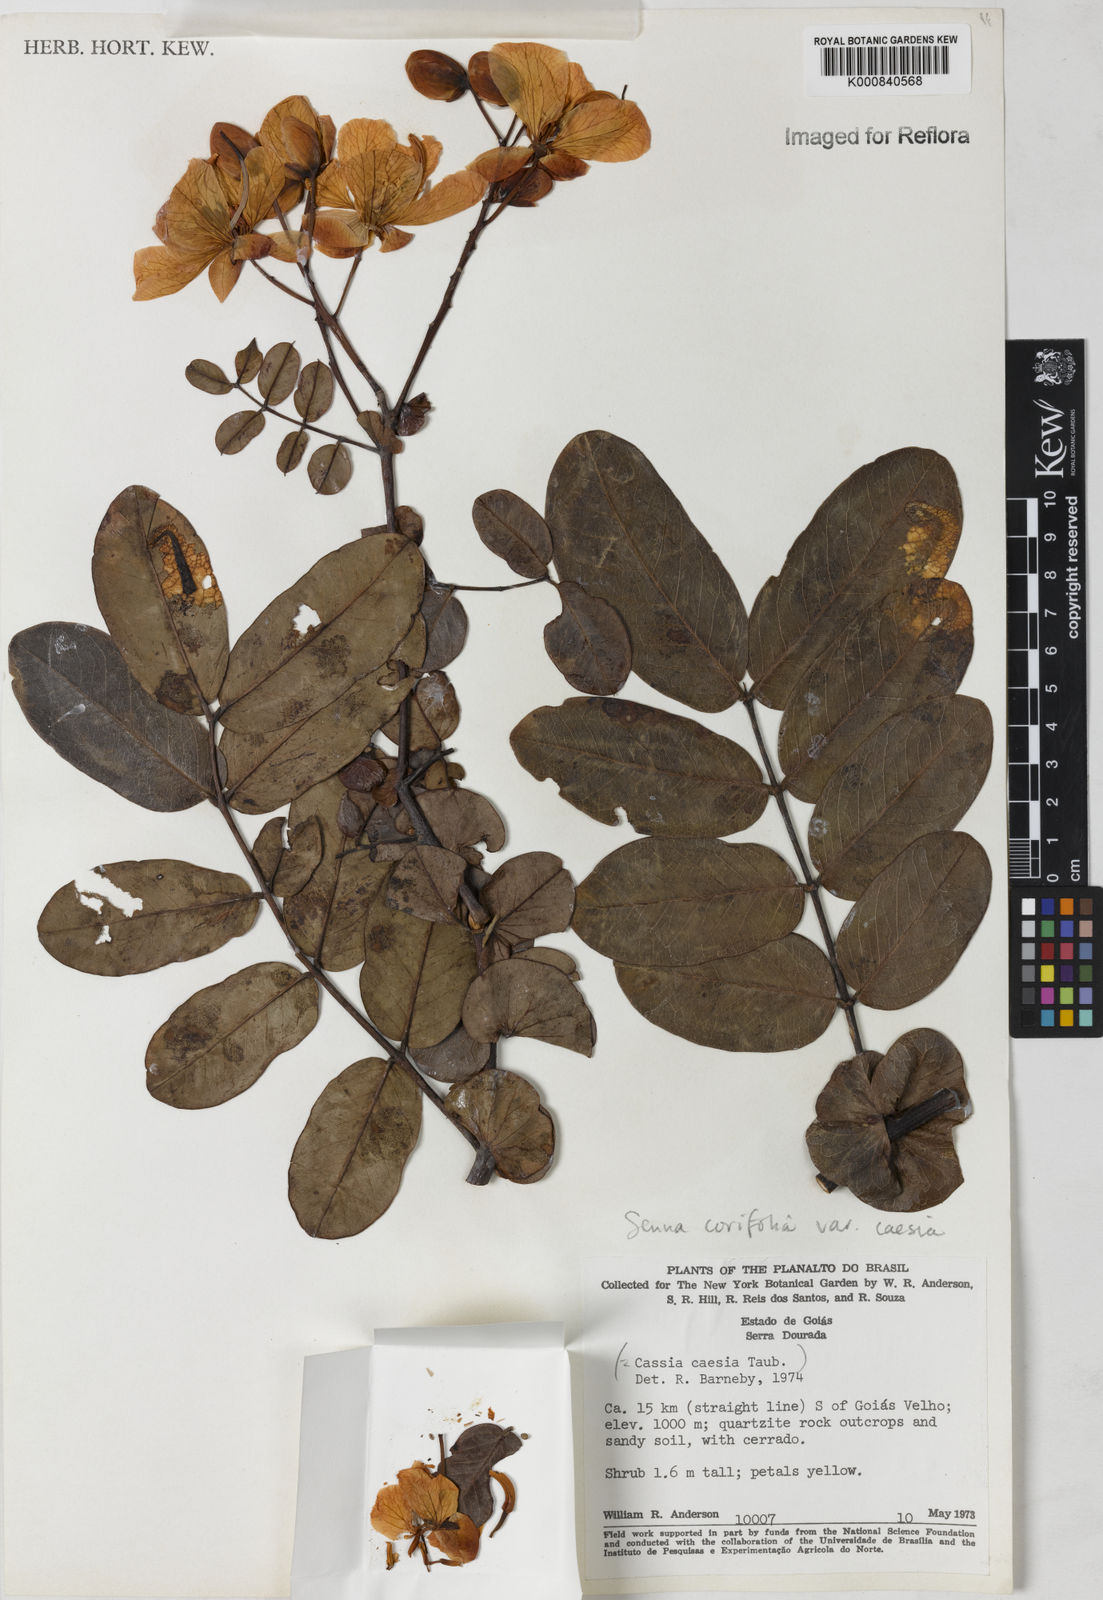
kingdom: Plantae
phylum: Tracheophyta
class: Magnoliopsida
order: Fabales
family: Fabaceae
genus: Senna
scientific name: Senna corifolia
